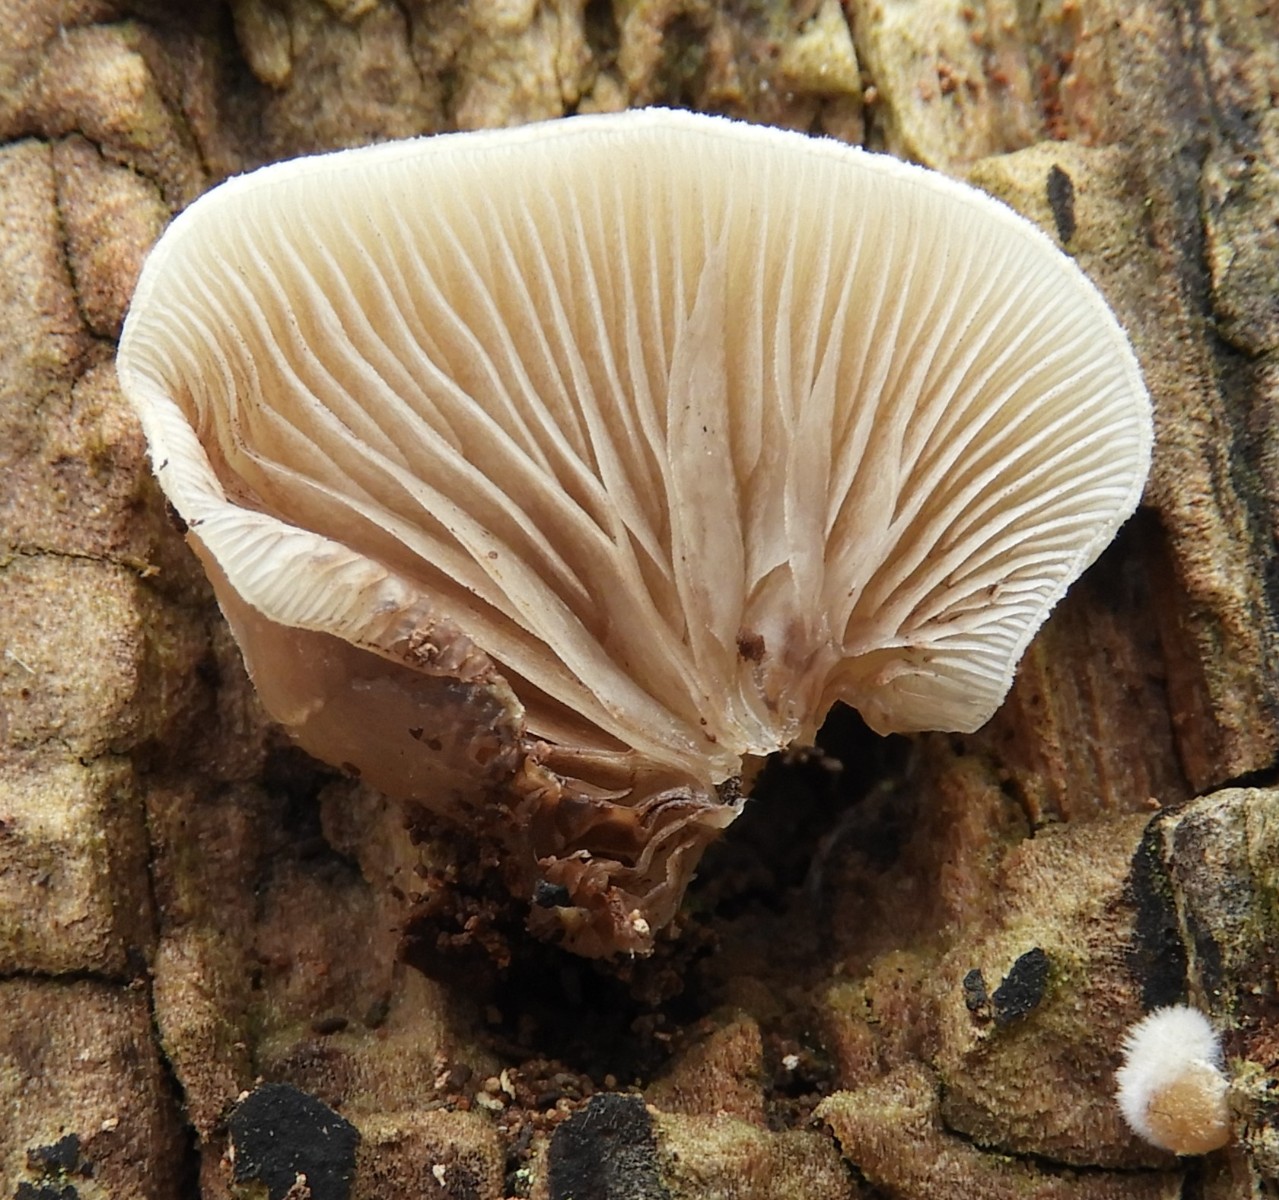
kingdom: Fungi
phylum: Basidiomycota
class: Agaricomycetes
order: Agaricales
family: Crepidotaceae
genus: Crepidotus
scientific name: Crepidotus mollis
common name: blød muslingesvamp
